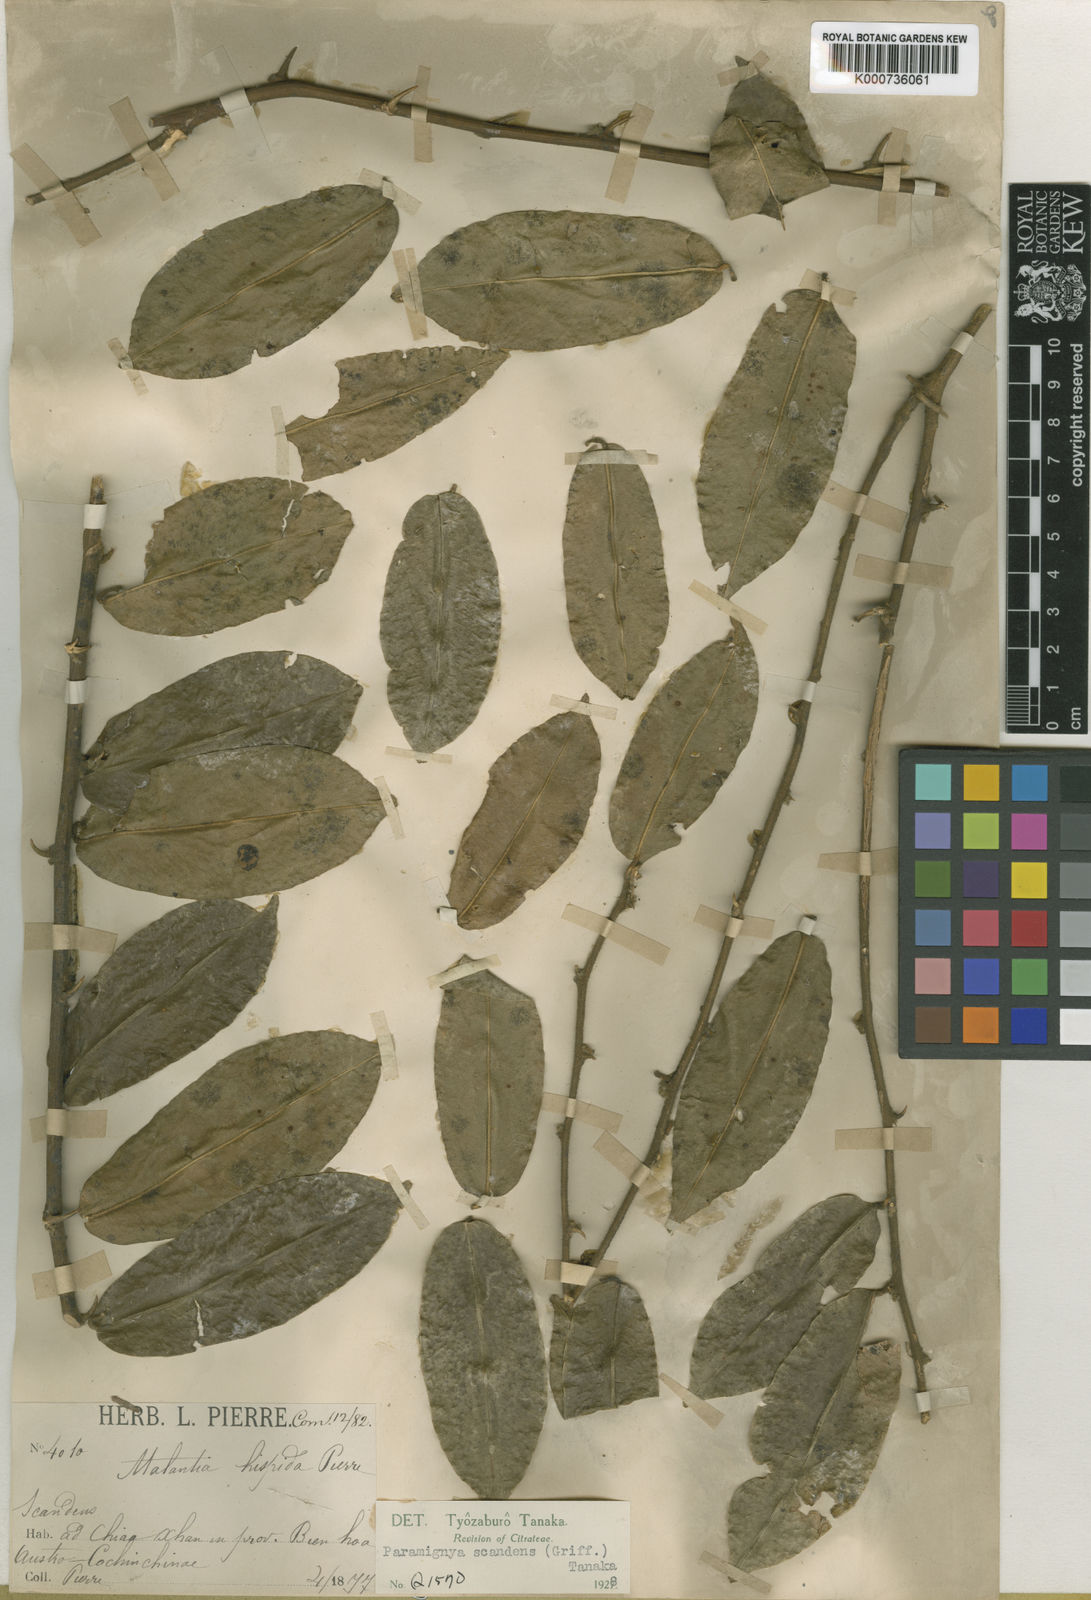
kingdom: Plantae
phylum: Tracheophyta
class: Magnoliopsida
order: Sapindales
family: Rutaceae
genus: Paramignya
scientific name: Paramignya scandens
